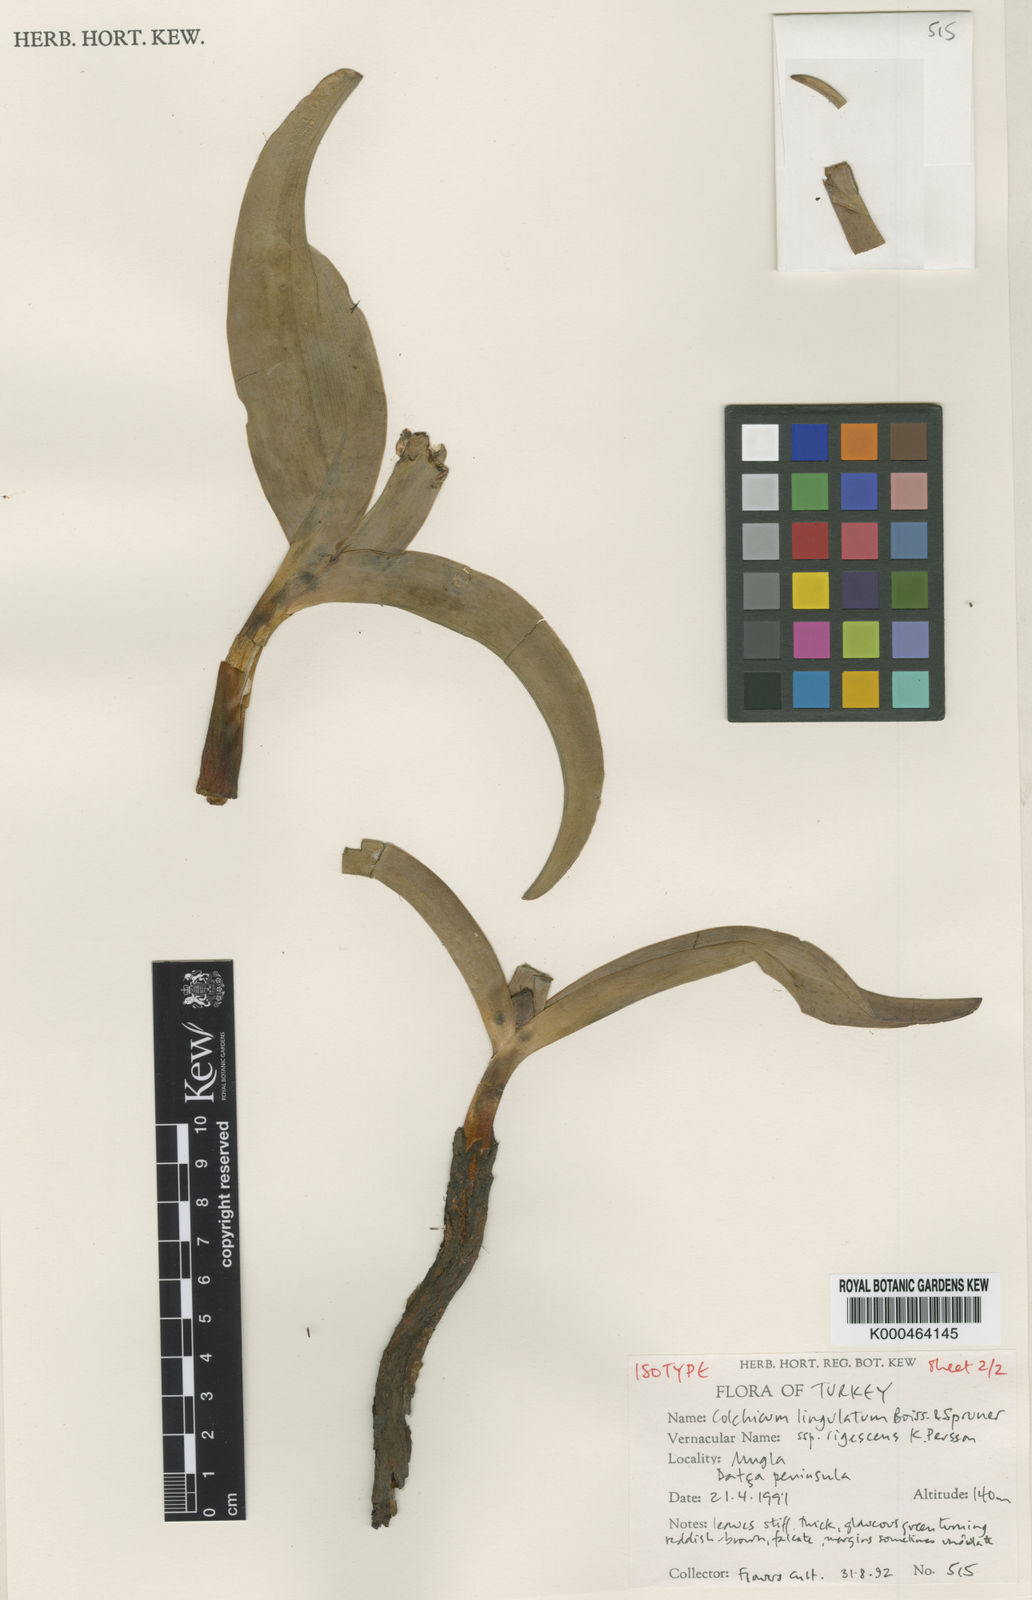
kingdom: Plantae
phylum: Tracheophyta
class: Liliopsida
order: Liliales
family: Colchicaceae
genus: Colchicum
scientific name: Colchicum lingulatum
